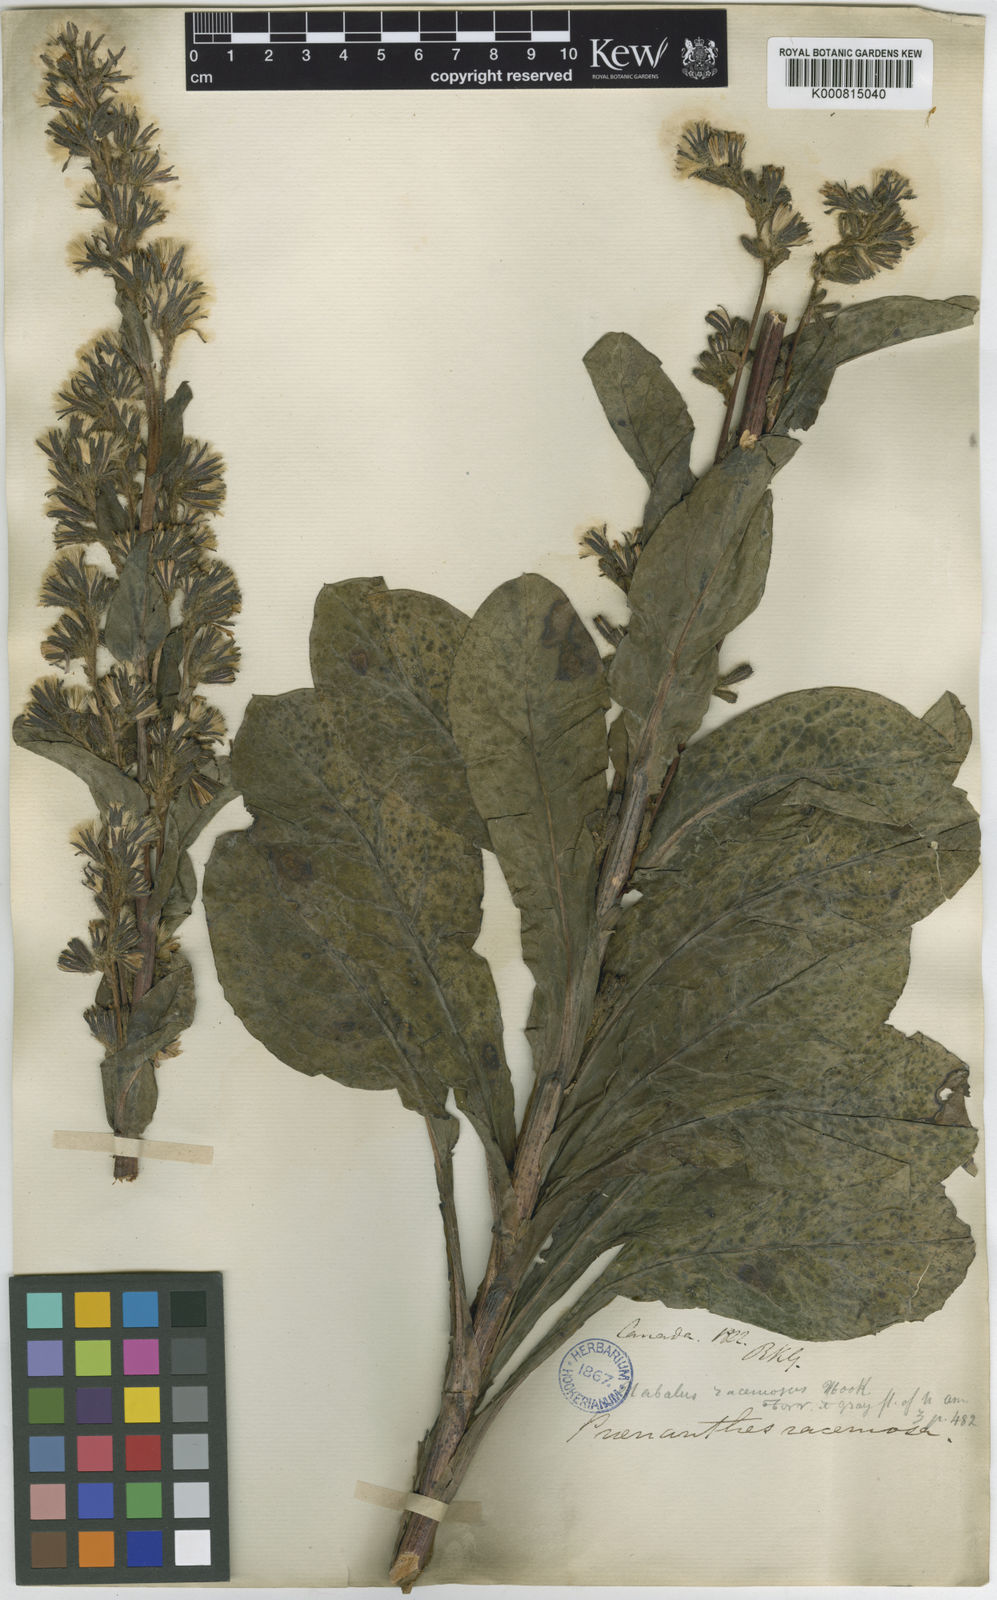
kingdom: Plantae
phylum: Tracheophyta
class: Magnoliopsida
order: Asterales
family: Asteraceae
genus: Nabalus
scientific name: Nabalus racemosus
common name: Glaucous white lettuce
